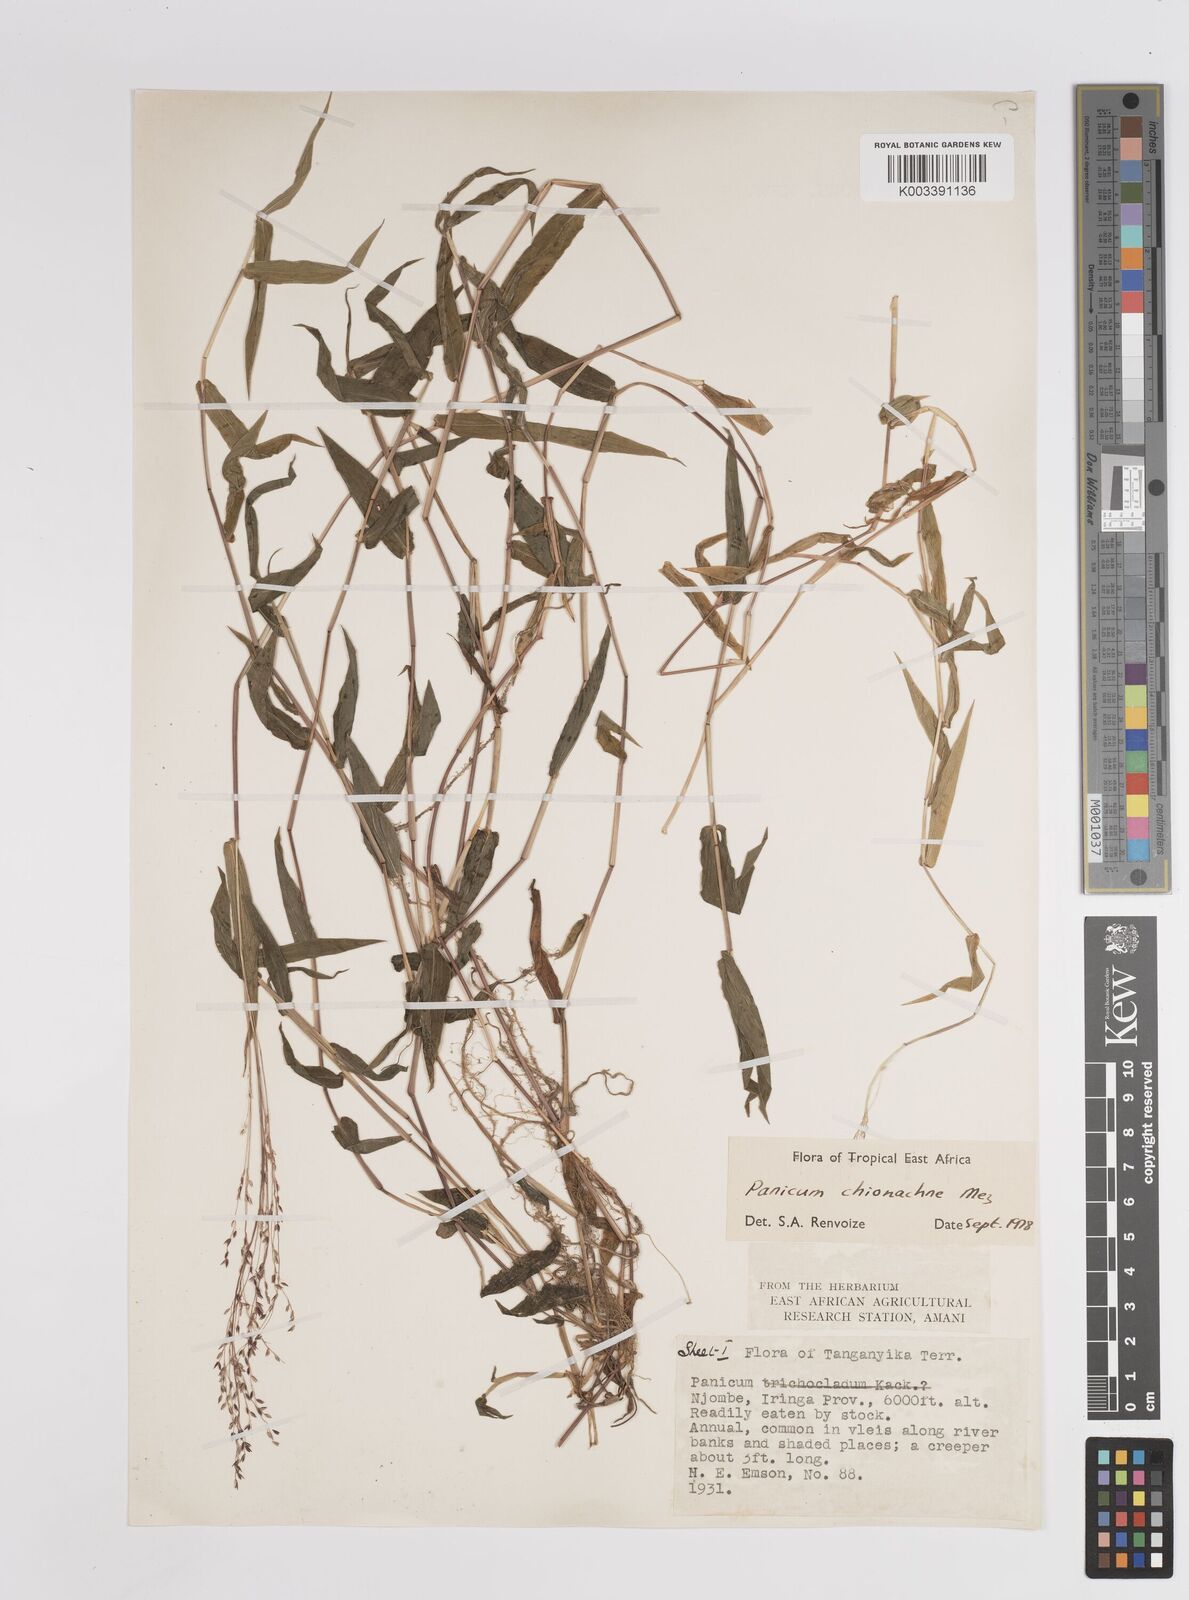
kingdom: Plantae
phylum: Tracheophyta
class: Liliopsida
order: Poales
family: Poaceae
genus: Panicum
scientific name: Panicum chionachne
